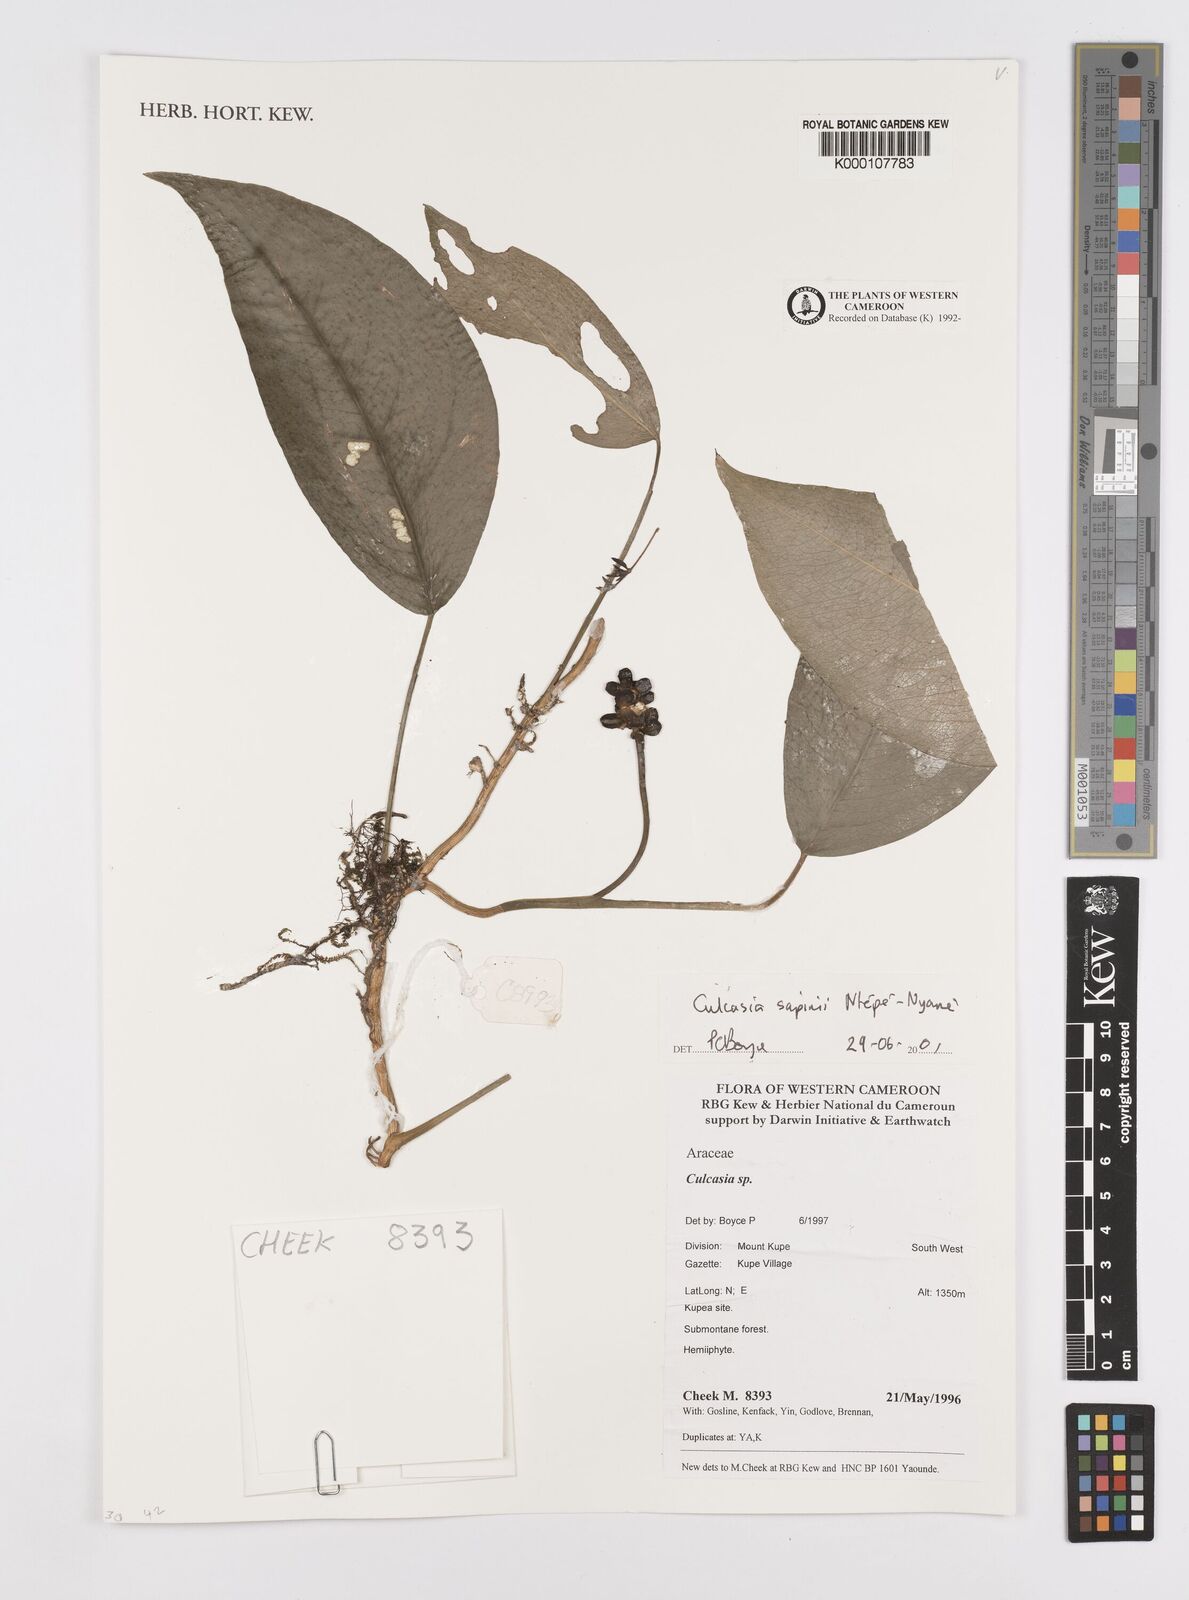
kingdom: Plantae
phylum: Tracheophyta
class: Liliopsida
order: Alismatales
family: Araceae
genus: Culcasia
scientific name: Culcasia seretii
